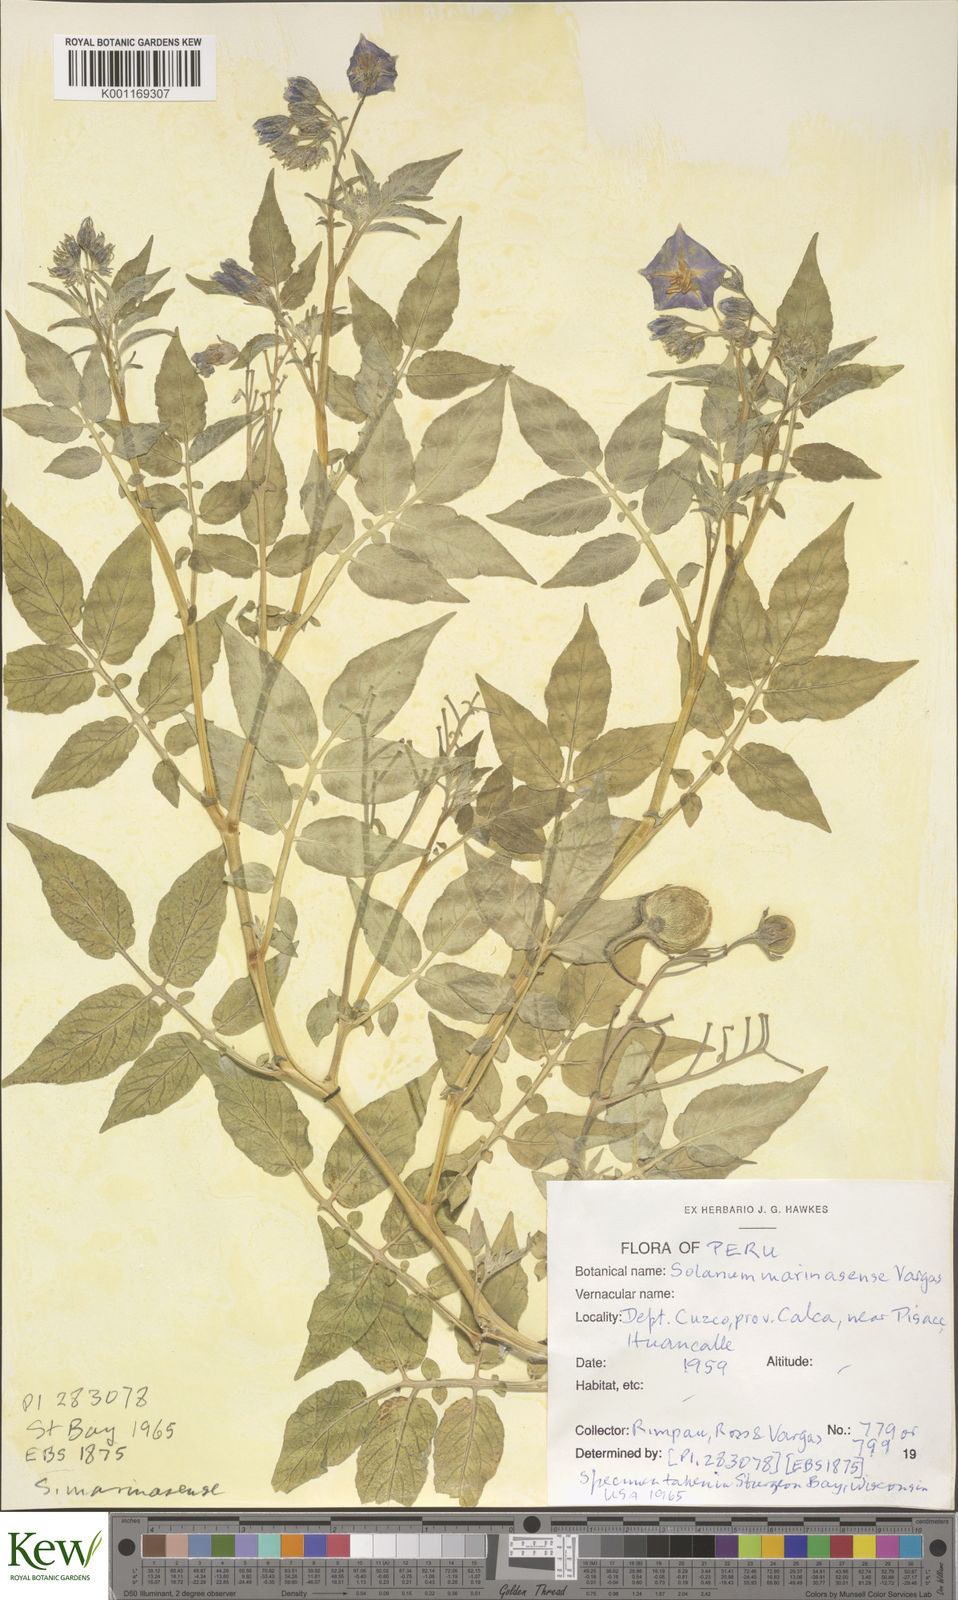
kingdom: Plantae
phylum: Tracheophyta
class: Magnoliopsida
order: Solanales
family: Solanaceae
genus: Solanum
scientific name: Solanum candolleanum
